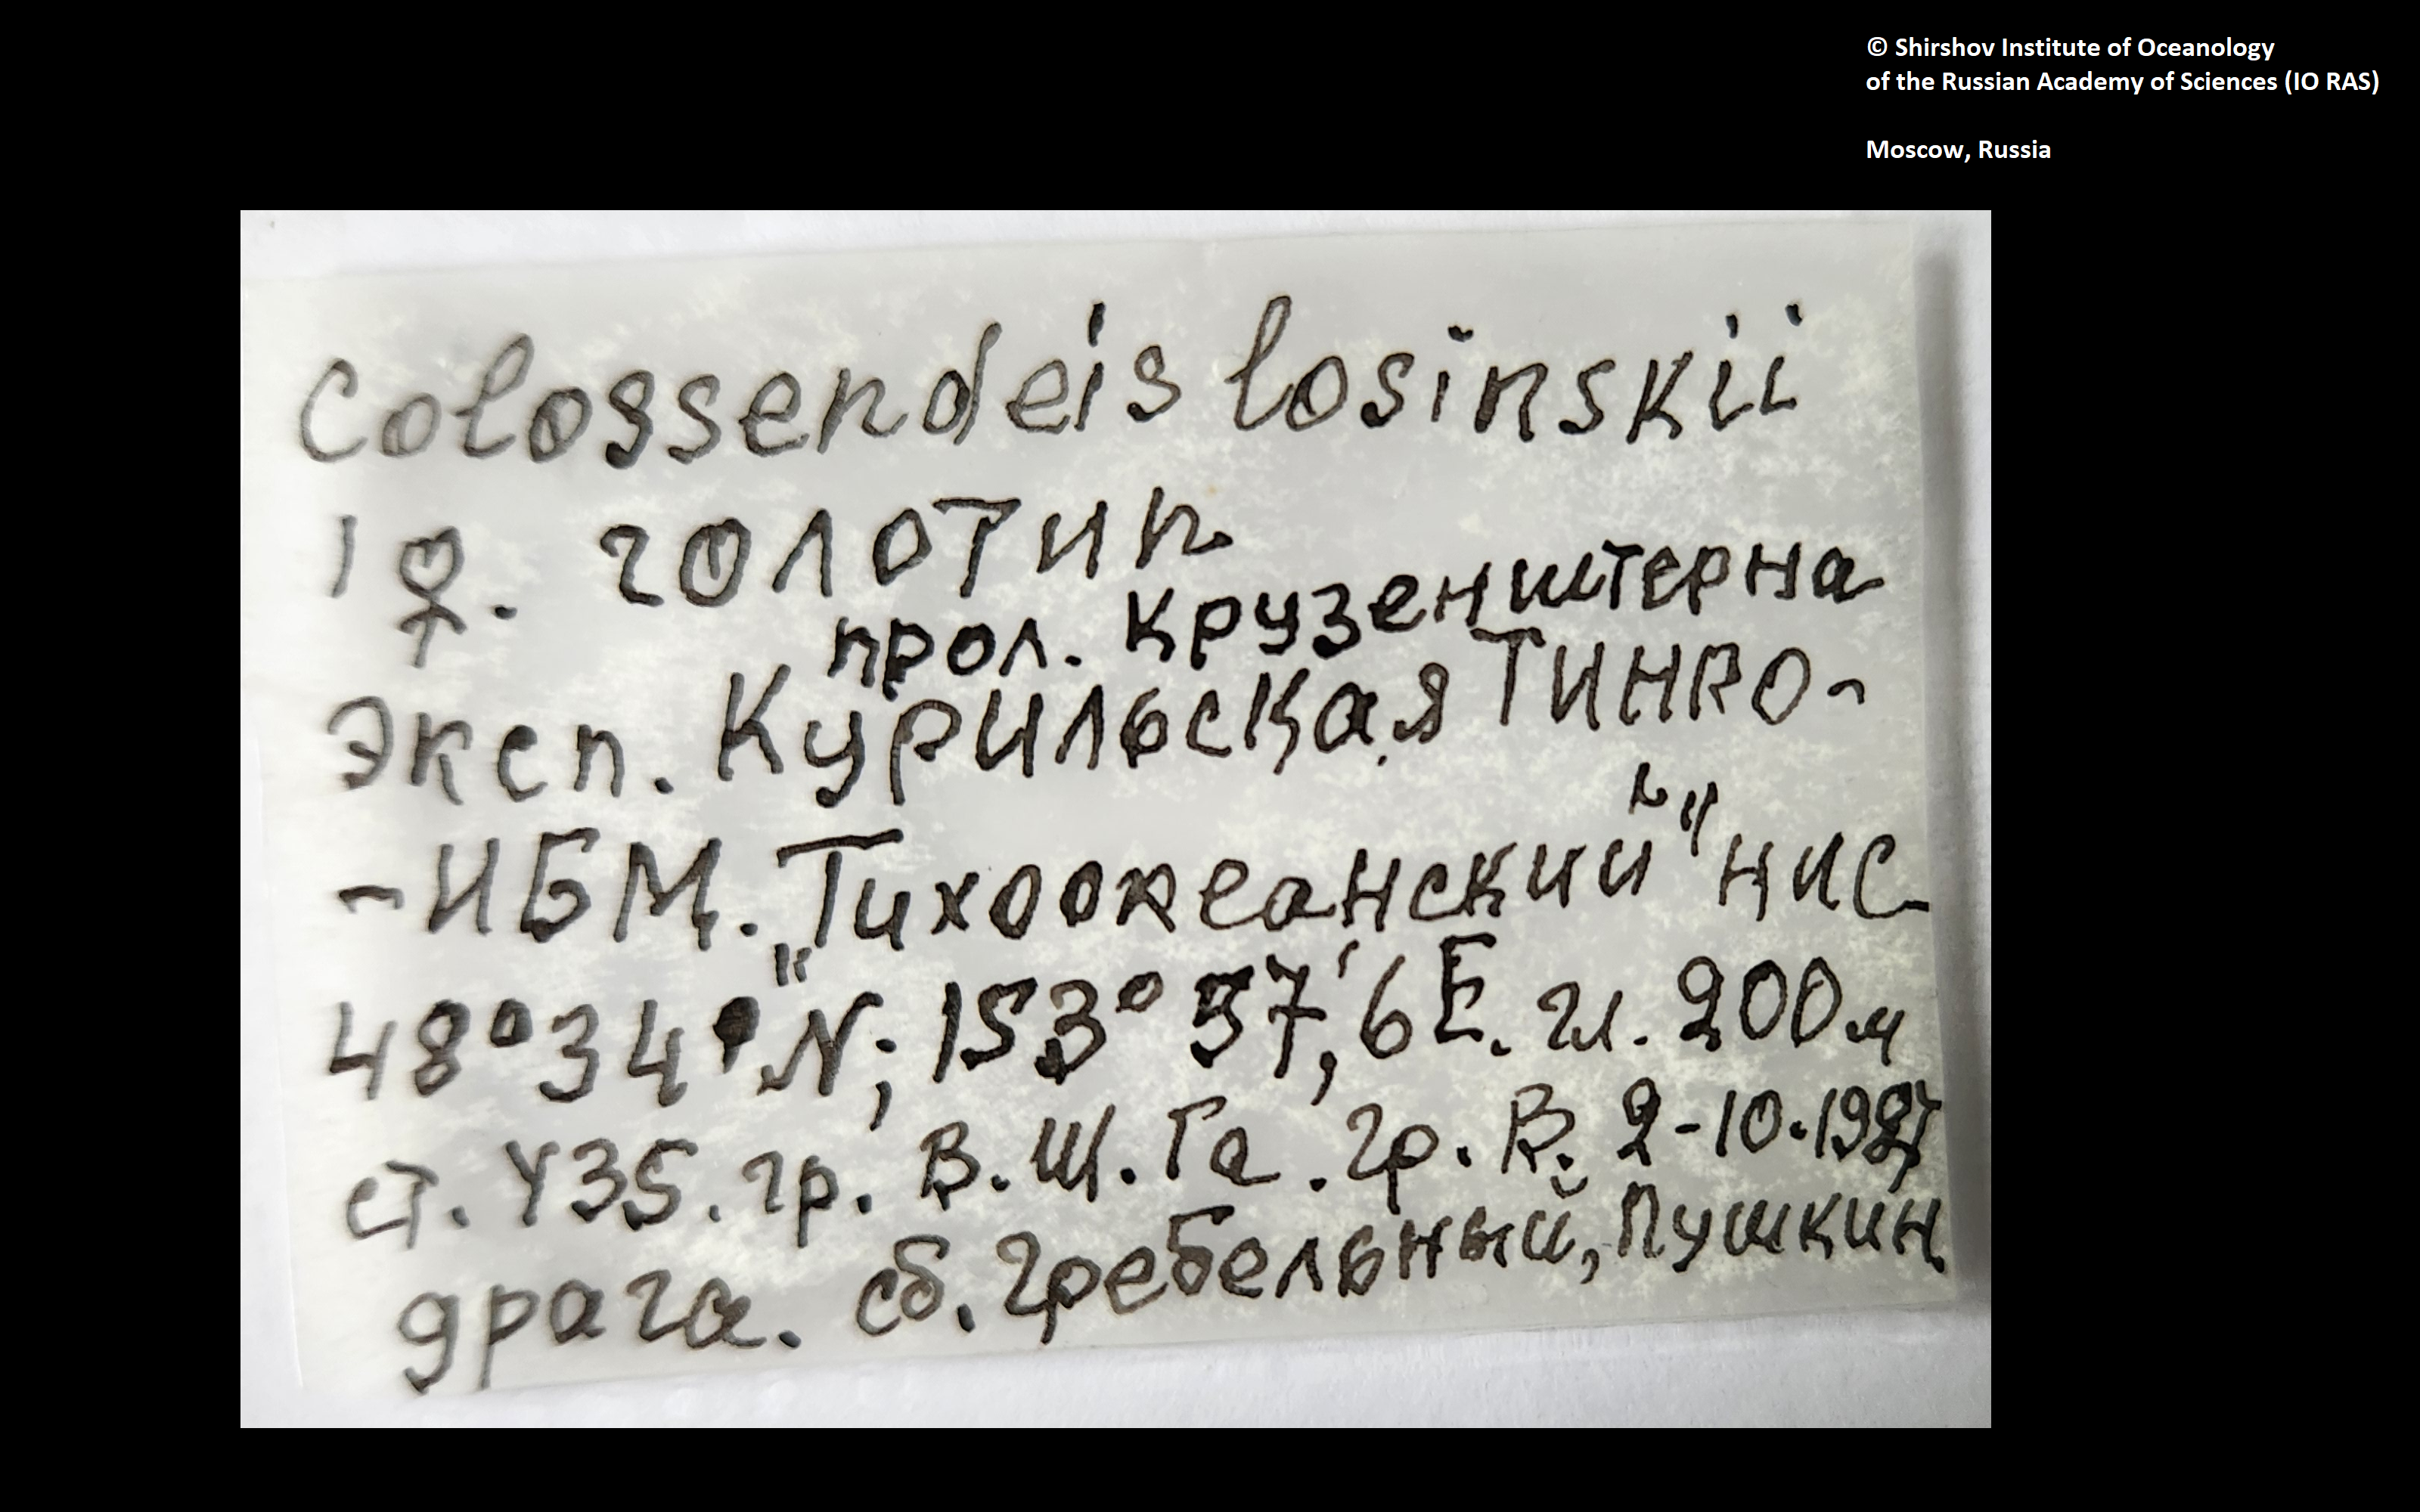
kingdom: Animalia
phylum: Arthropoda
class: Pycnogonida
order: Pantopoda
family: Colossendeidae
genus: Colossendeis
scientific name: Colossendeis losinskii
